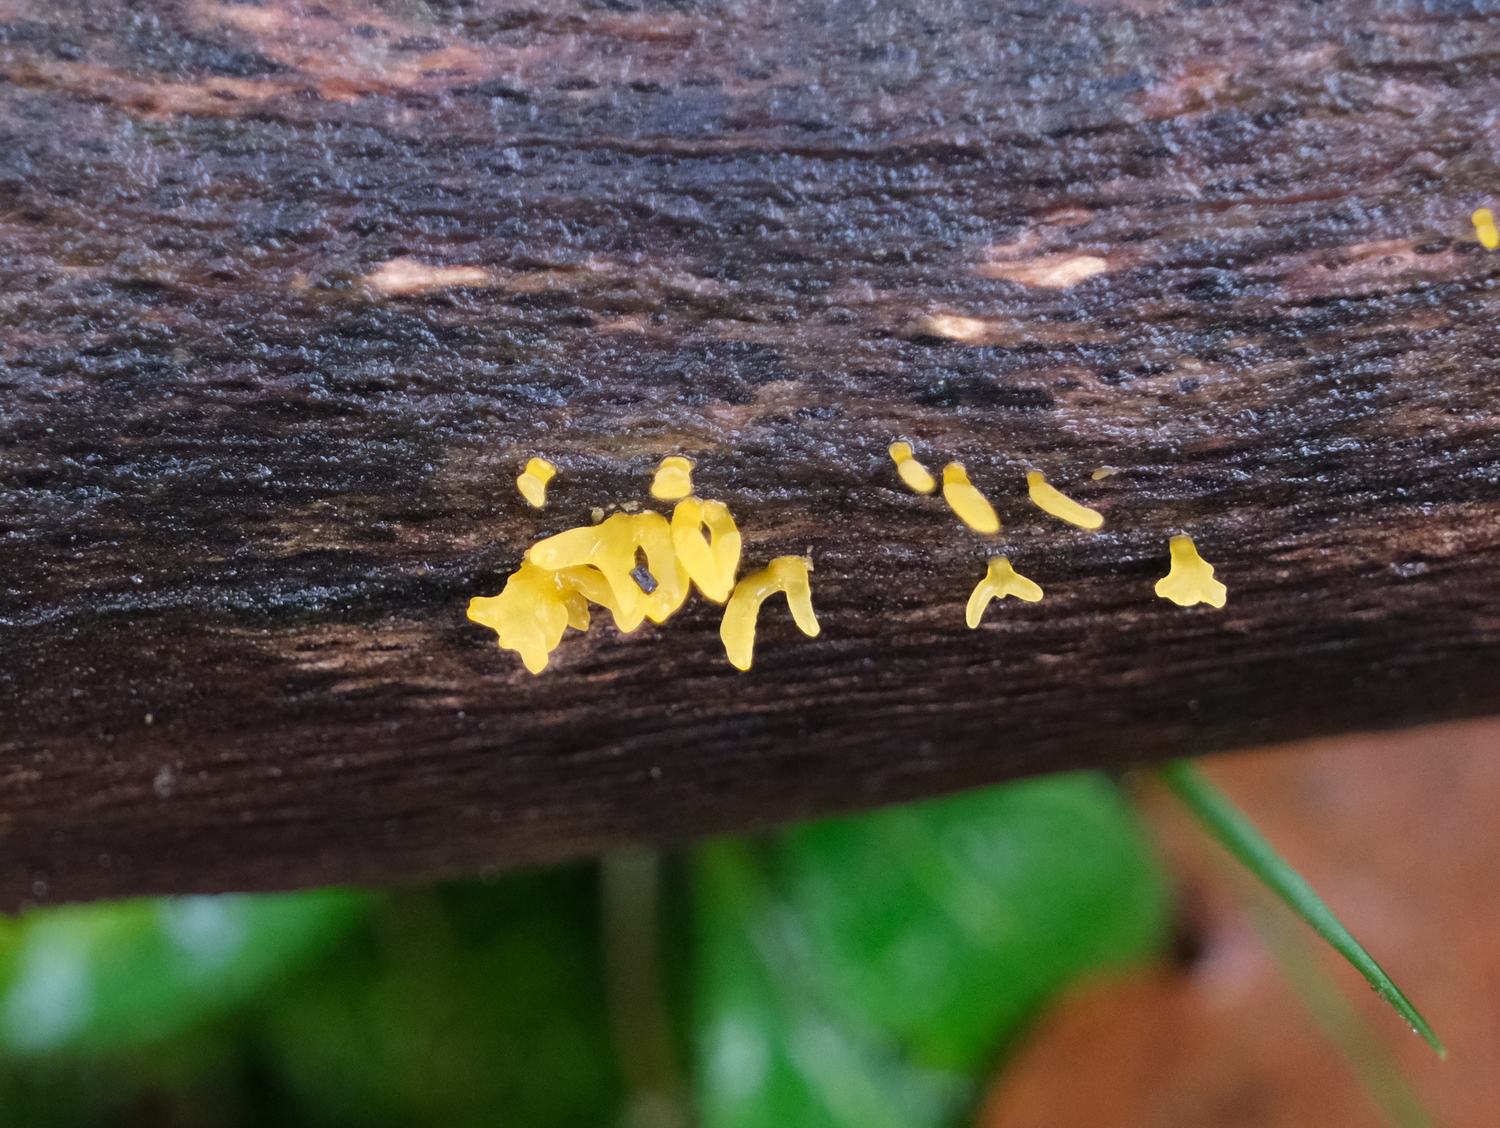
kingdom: Fungi
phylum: Basidiomycota
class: Dacrymycetes
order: Dacrymycetales
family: Dacrymycetaceae
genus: Calocera
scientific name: Calocera cornea
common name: liden guldgaffel
